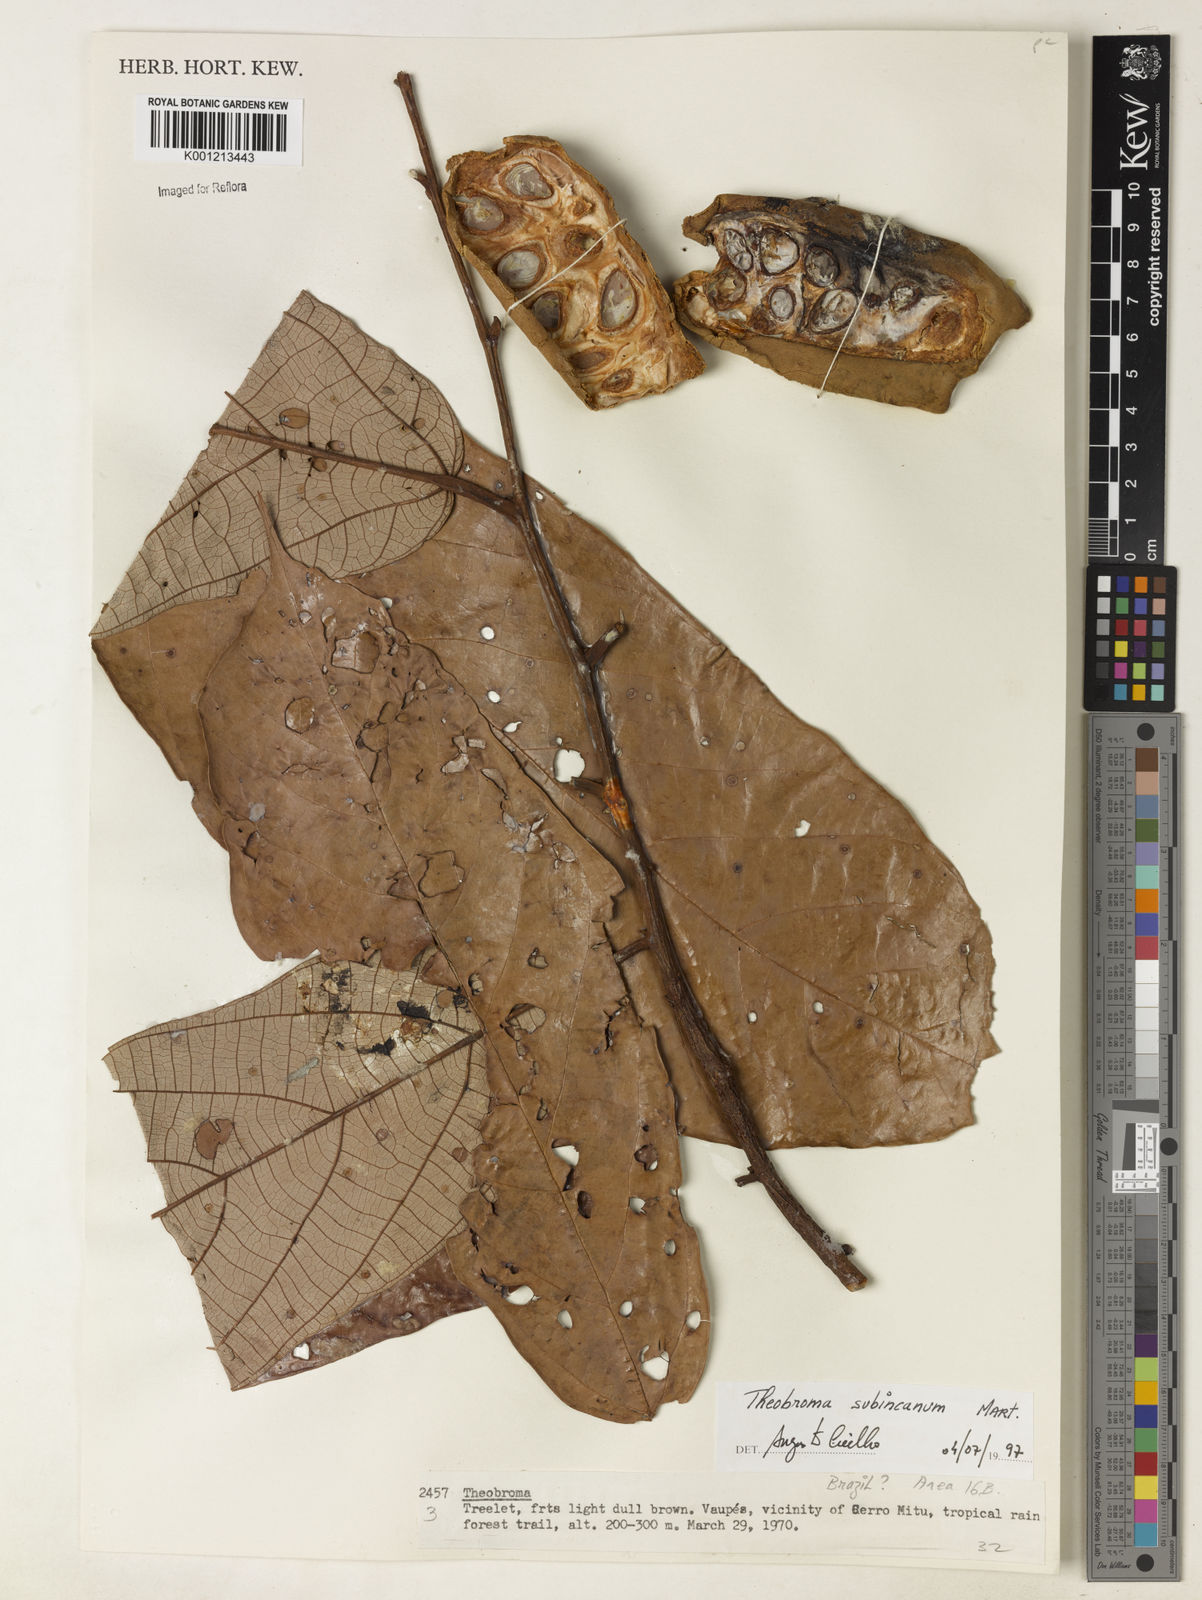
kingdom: Plantae
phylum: Tracheophyta
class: Magnoliopsida
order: Malvales
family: Malvaceae
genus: Theobroma
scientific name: Theobroma subincanum
